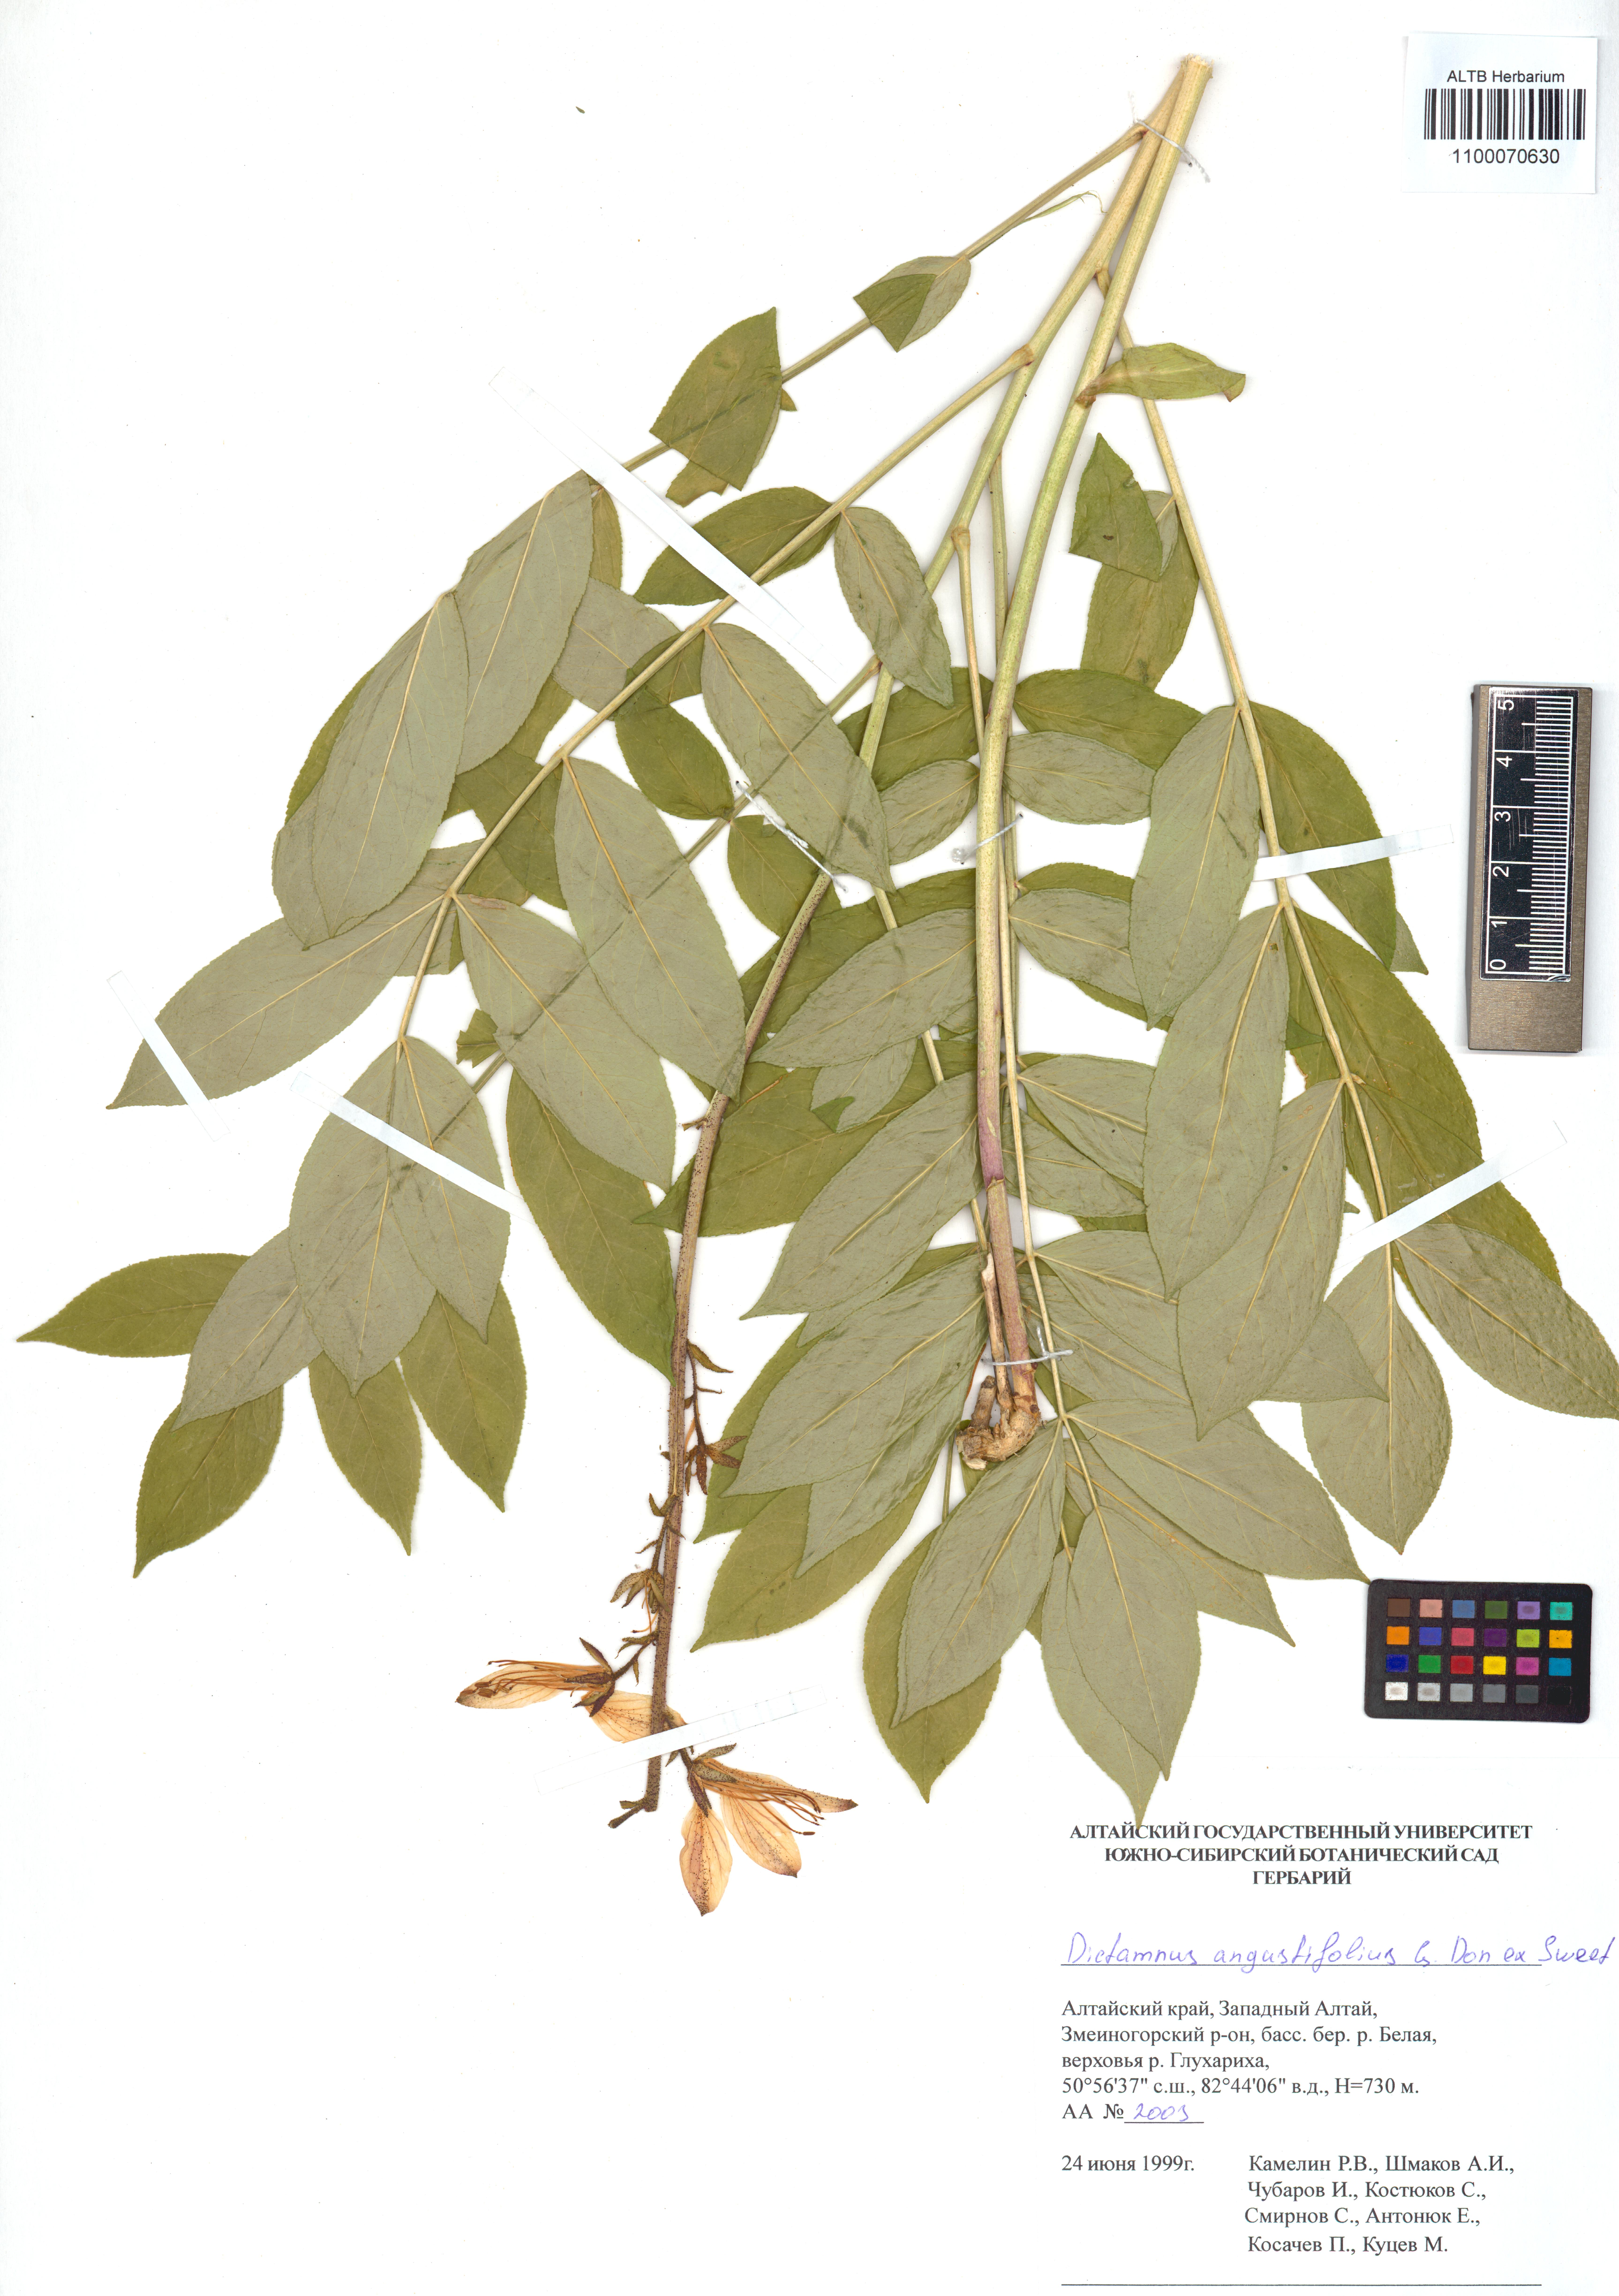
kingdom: Plantae
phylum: Tracheophyta
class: Magnoliopsida
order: Sapindales
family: Rutaceae
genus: Dictamnus
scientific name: Dictamnus albus
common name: Gasplant
